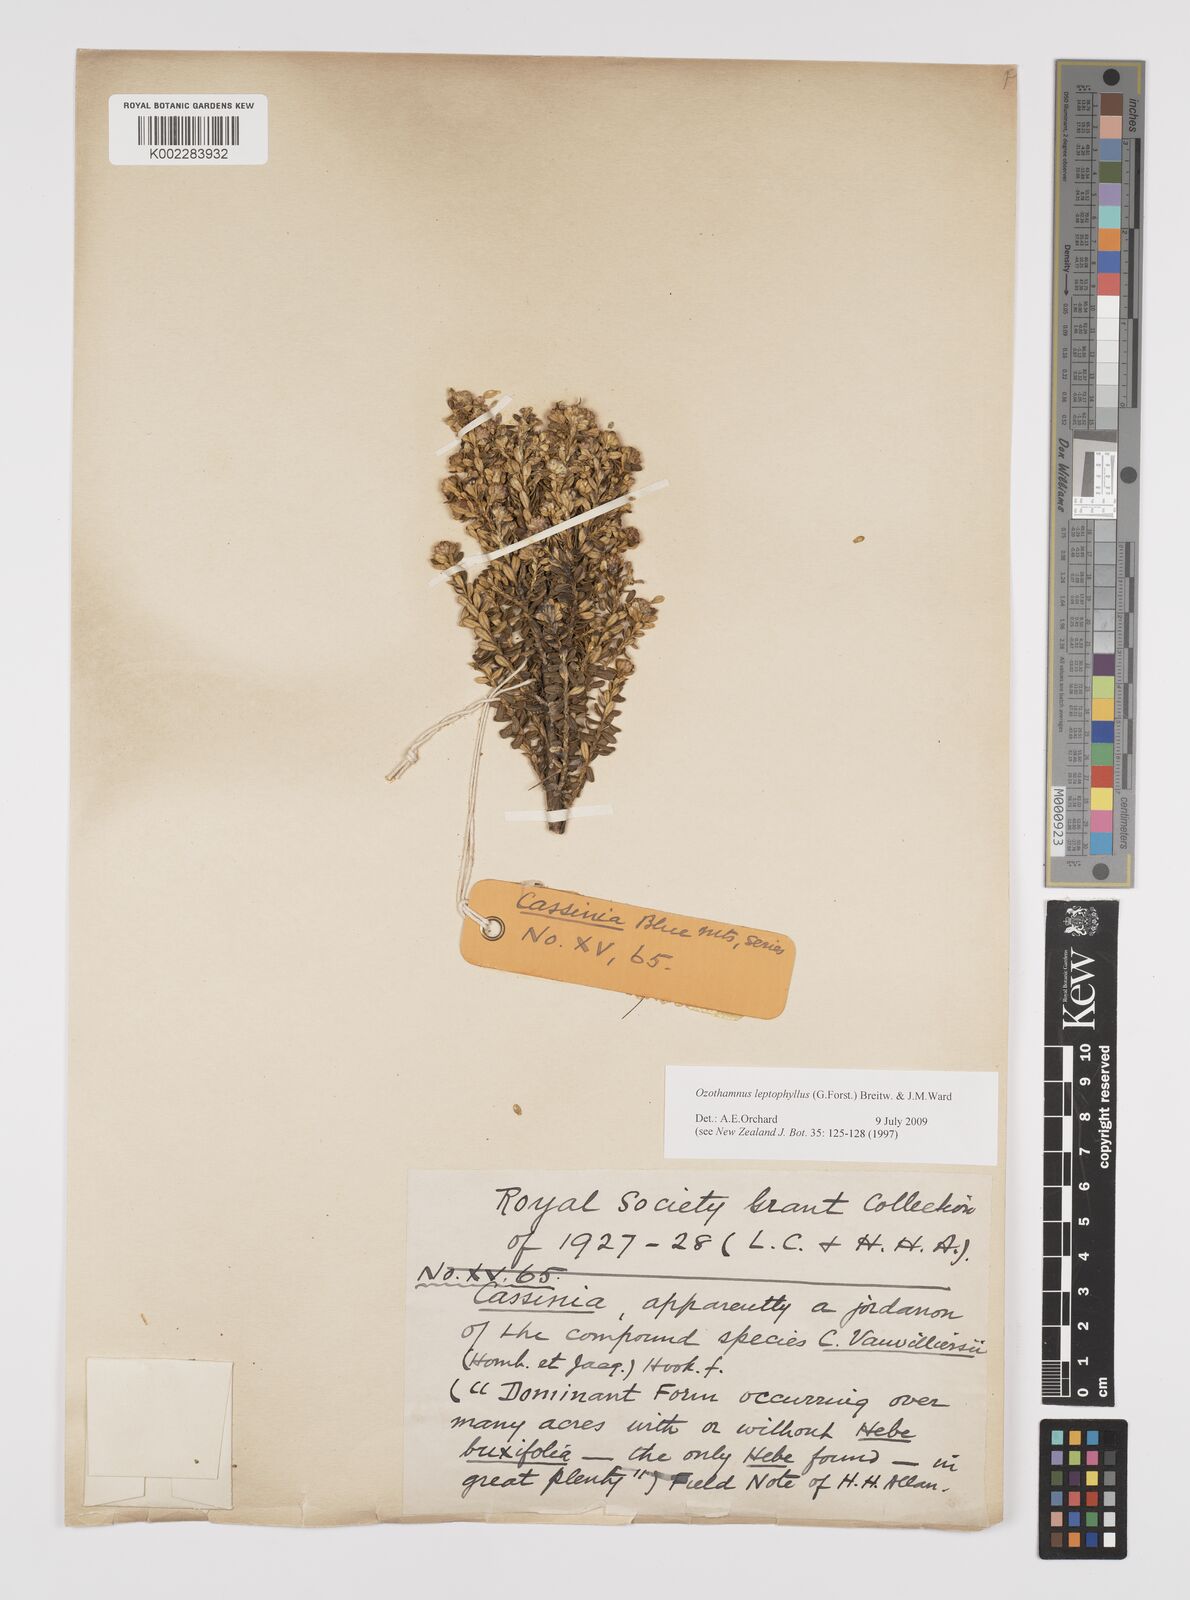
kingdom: Plantae
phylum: Tracheophyta
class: Magnoliopsida
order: Asterales
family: Asteraceae
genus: Ozothamnus
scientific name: Ozothamnus leptophyllus
